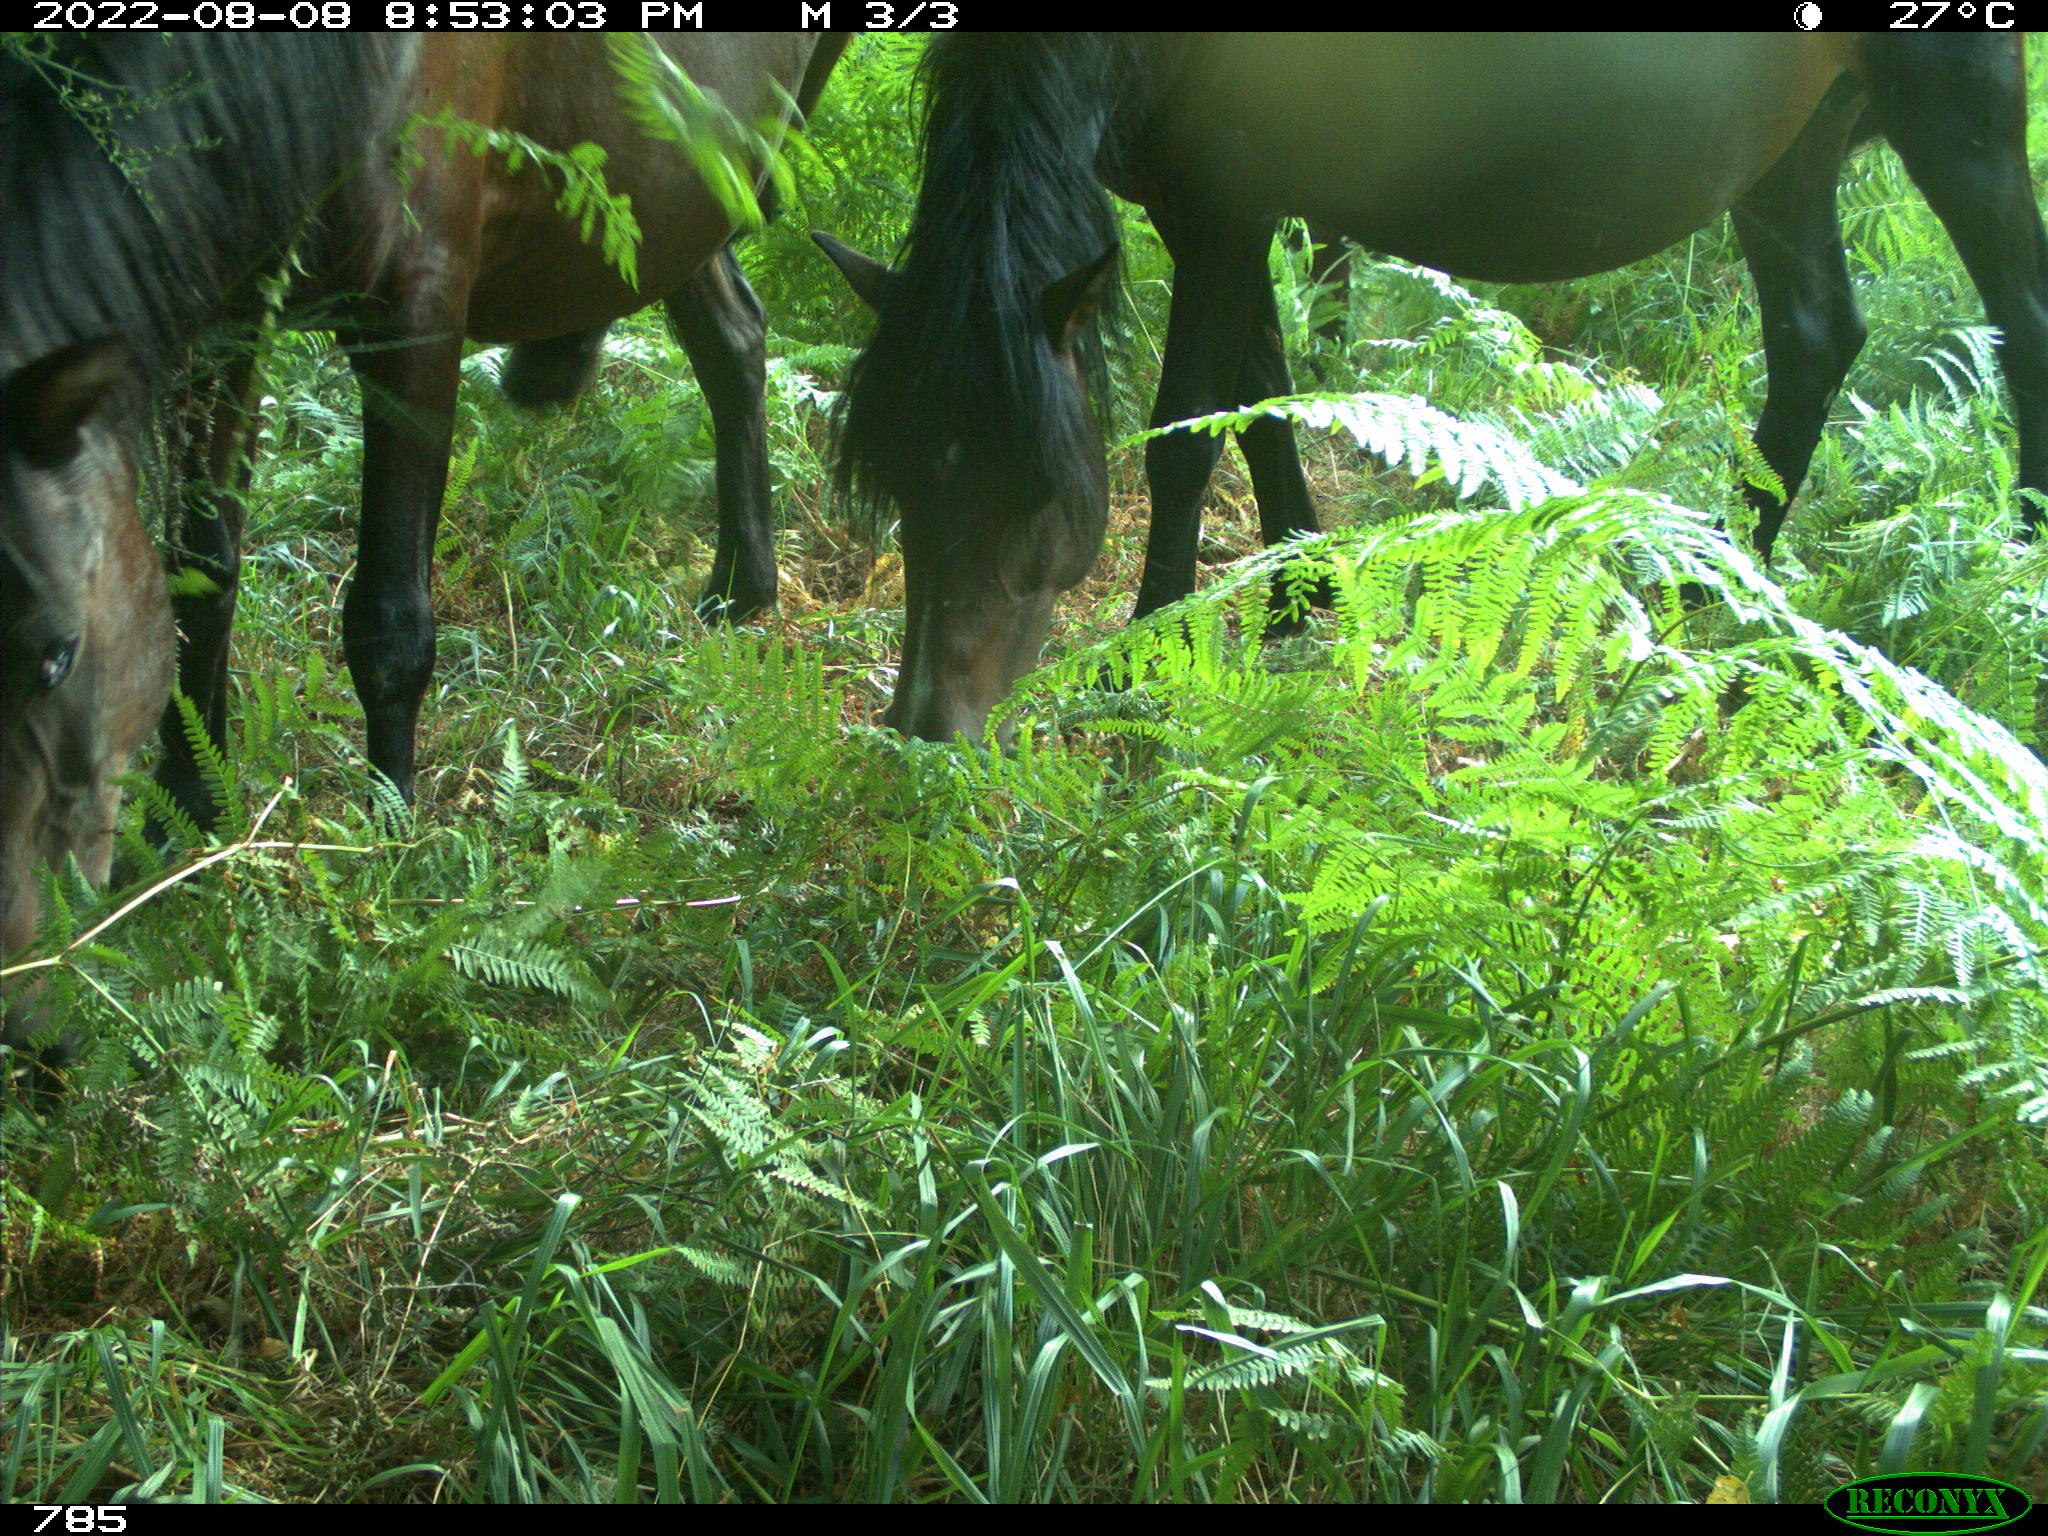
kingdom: Animalia
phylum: Chordata
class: Mammalia
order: Perissodactyla
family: Equidae
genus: Equus
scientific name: Equus caballus
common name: Horse
